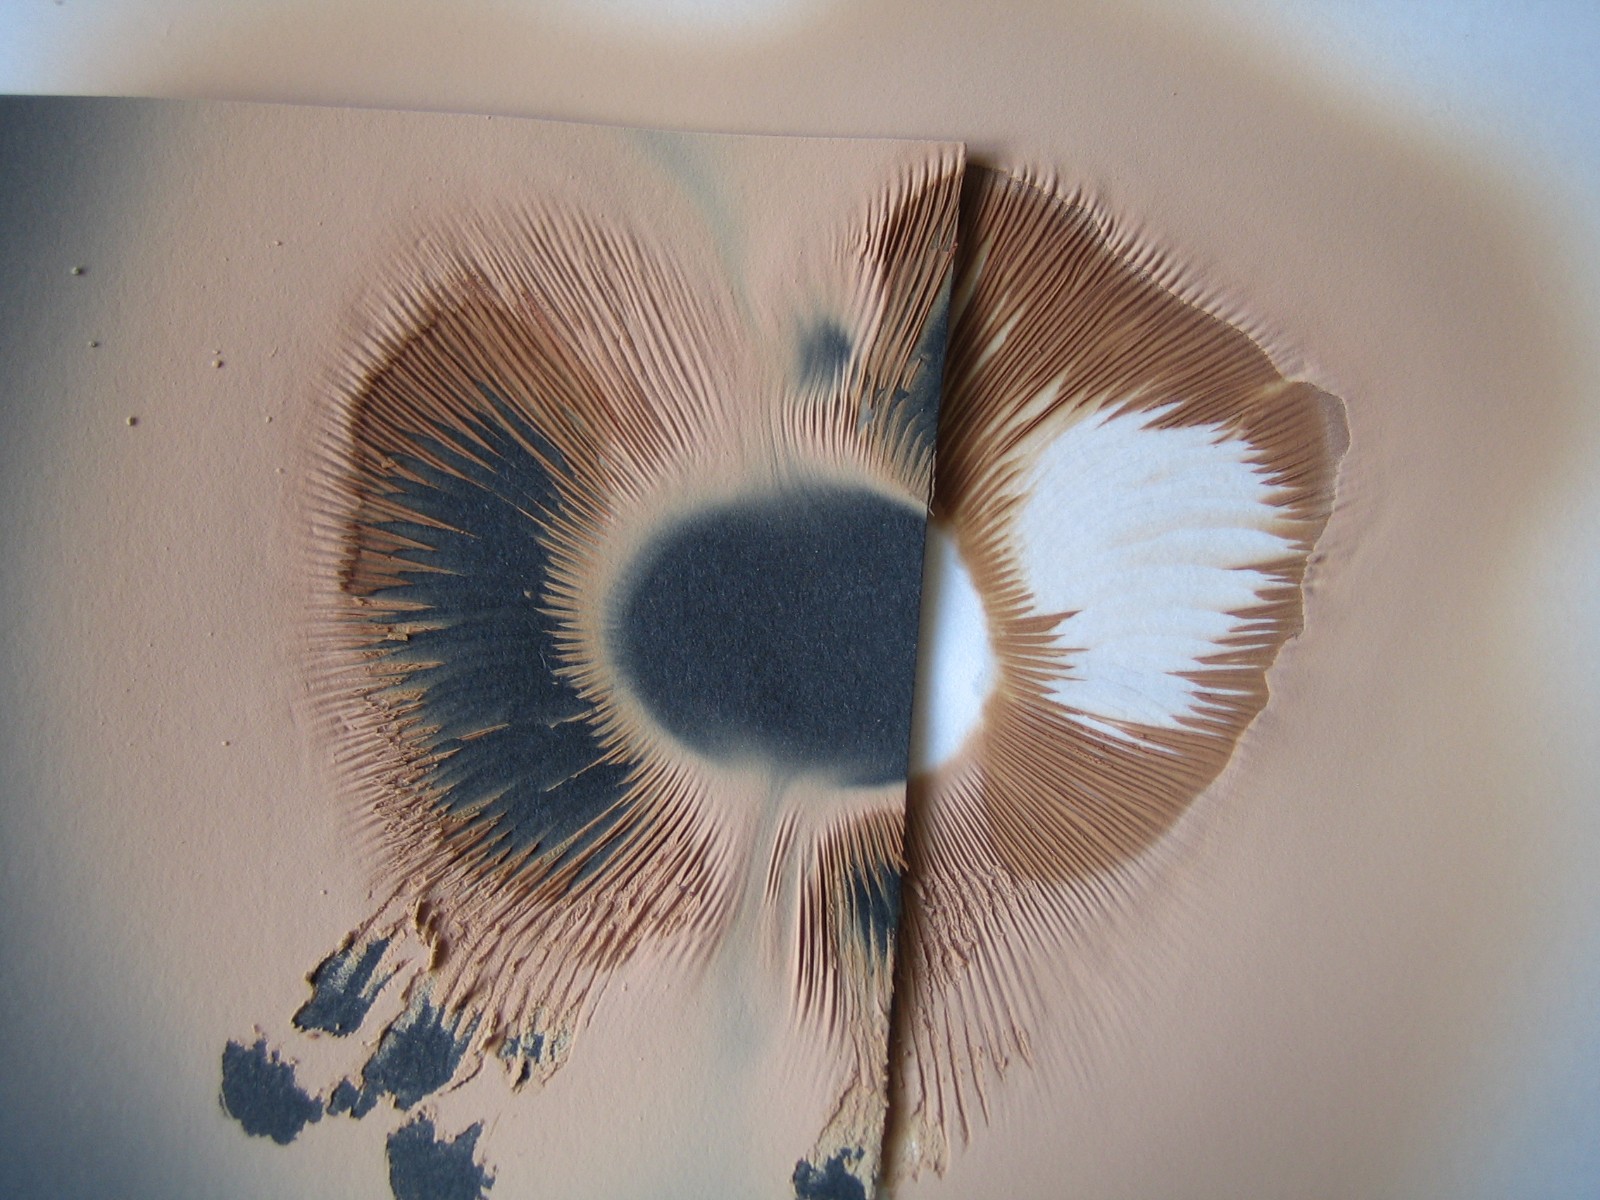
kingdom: Fungi
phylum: Basidiomycota
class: Agaricomycetes
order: Agaricales
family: Pluteaceae
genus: Pluteus
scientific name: Pluteus atromarginatus
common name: sortrandet skærmhat
